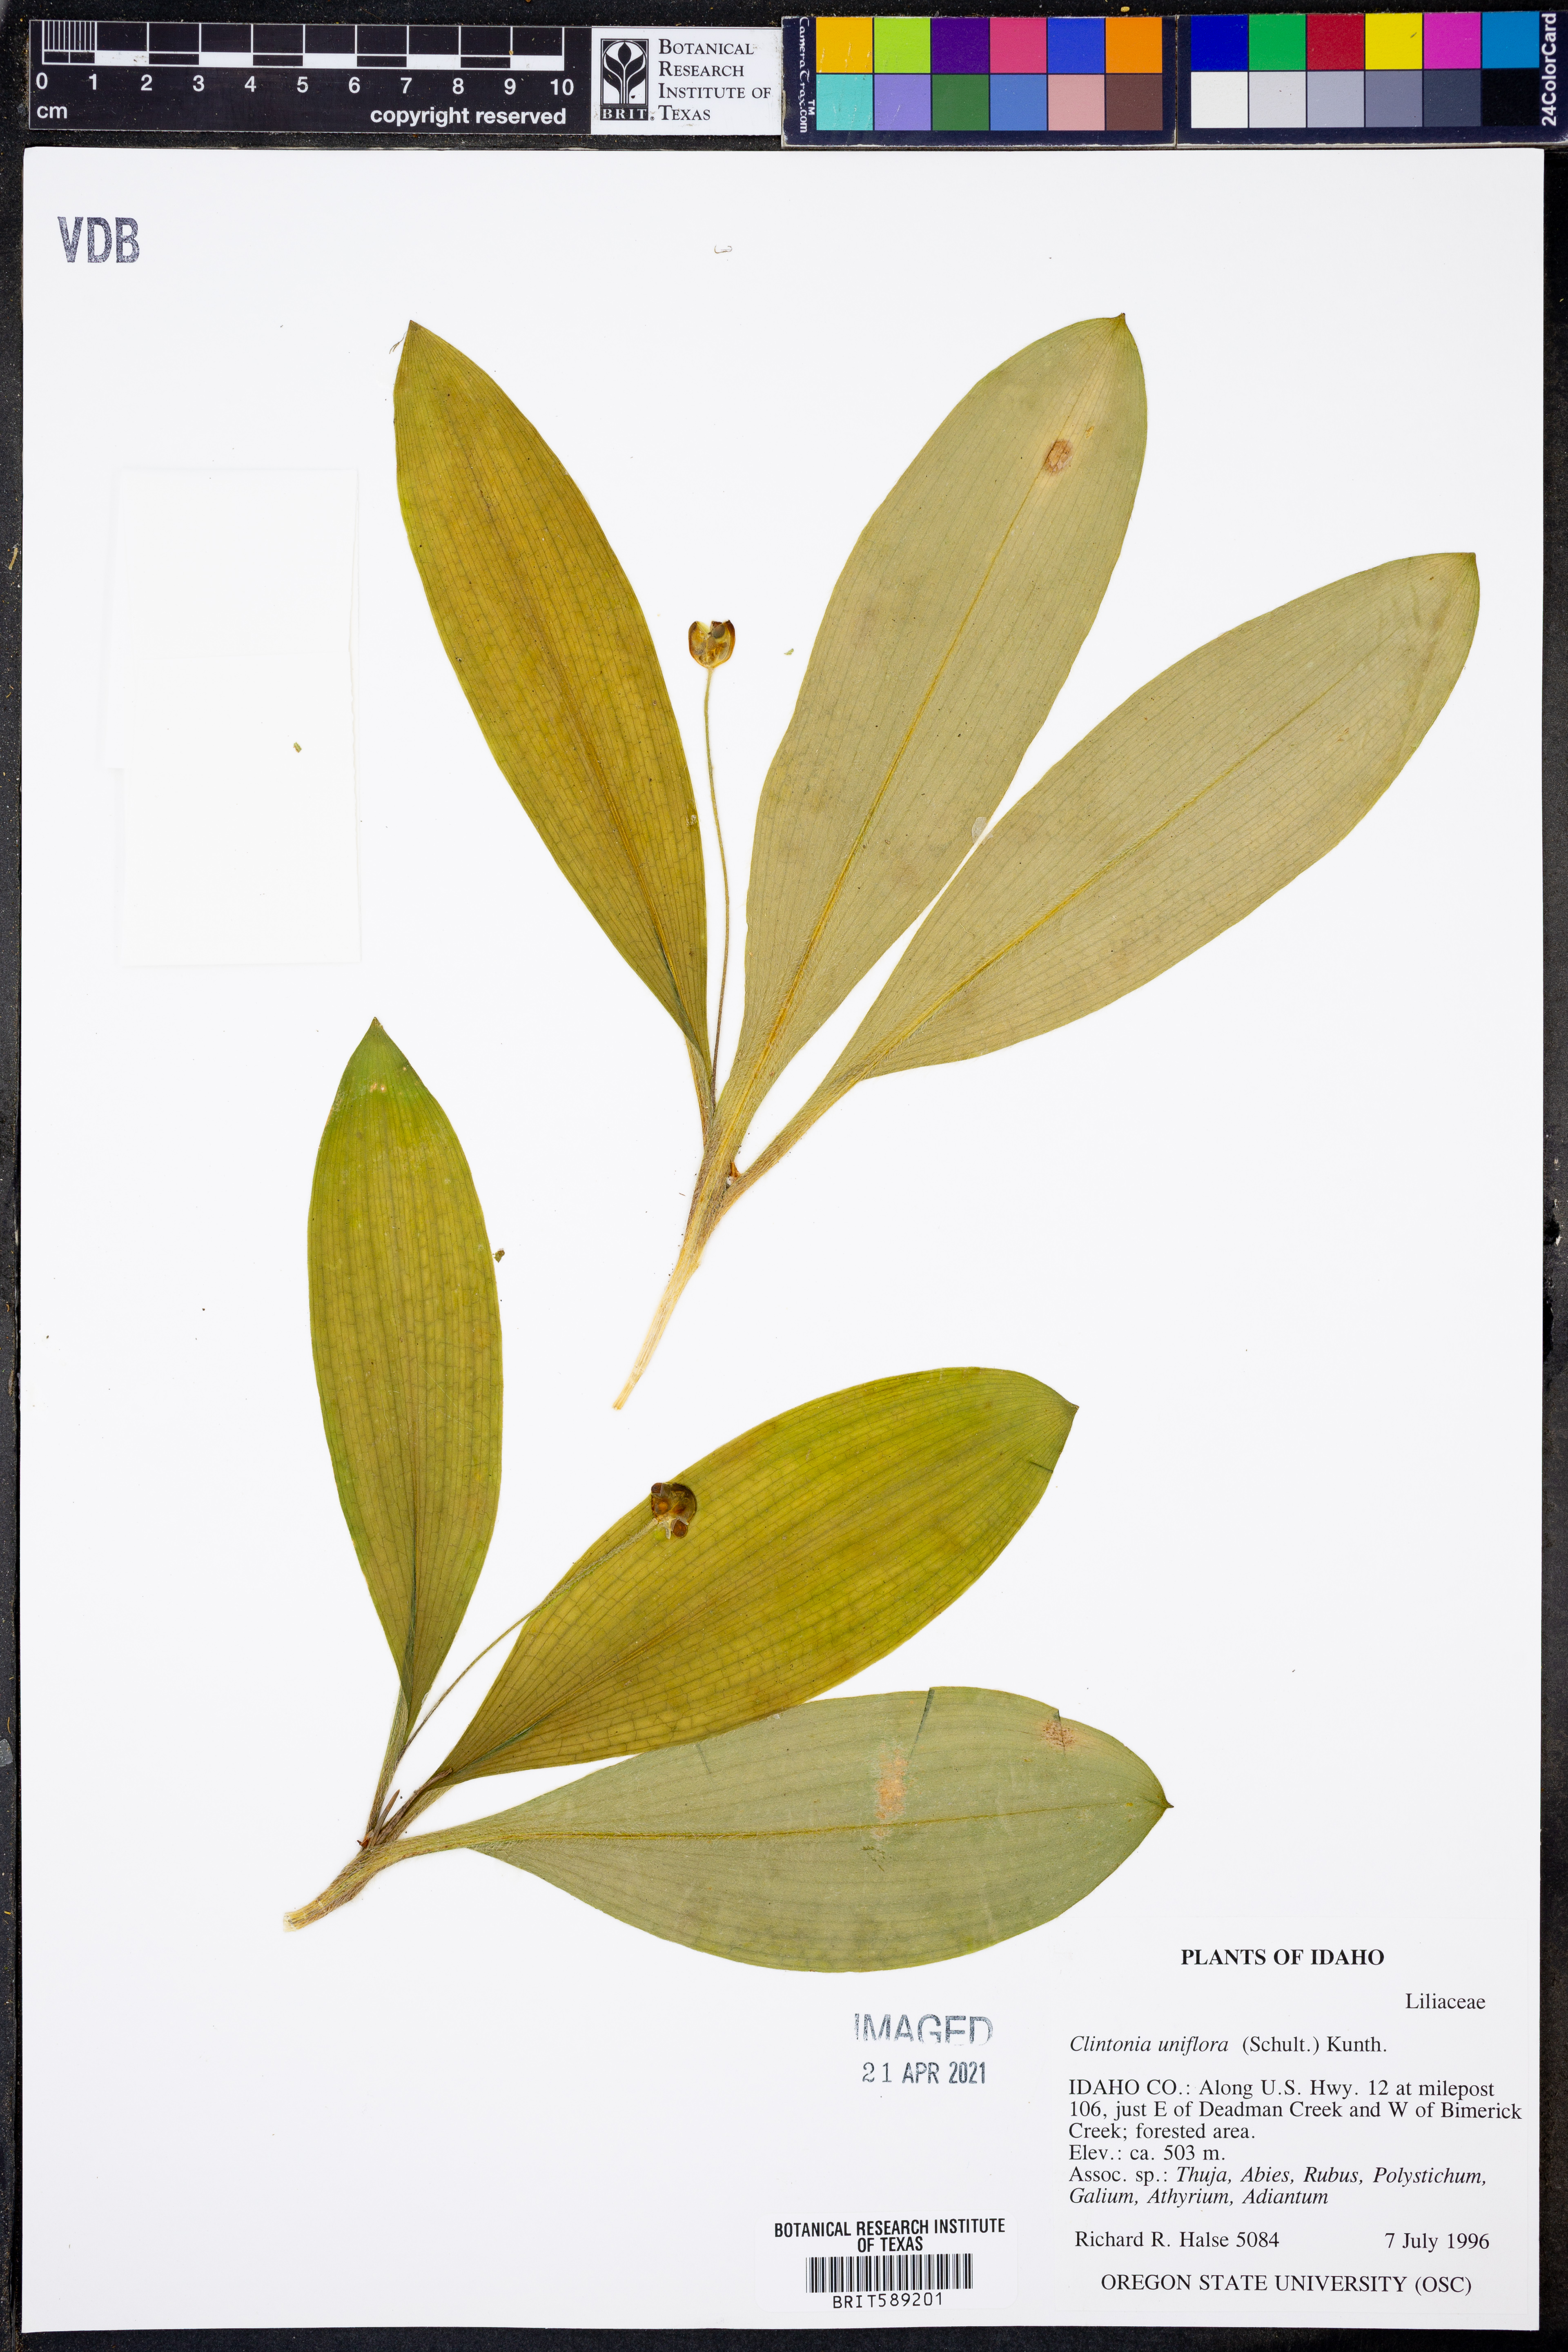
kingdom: Plantae
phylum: Tracheophyta
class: Liliopsida
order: Liliales
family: Liliaceae
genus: Clintonia
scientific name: Clintonia uniflora
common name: Queen's cup
